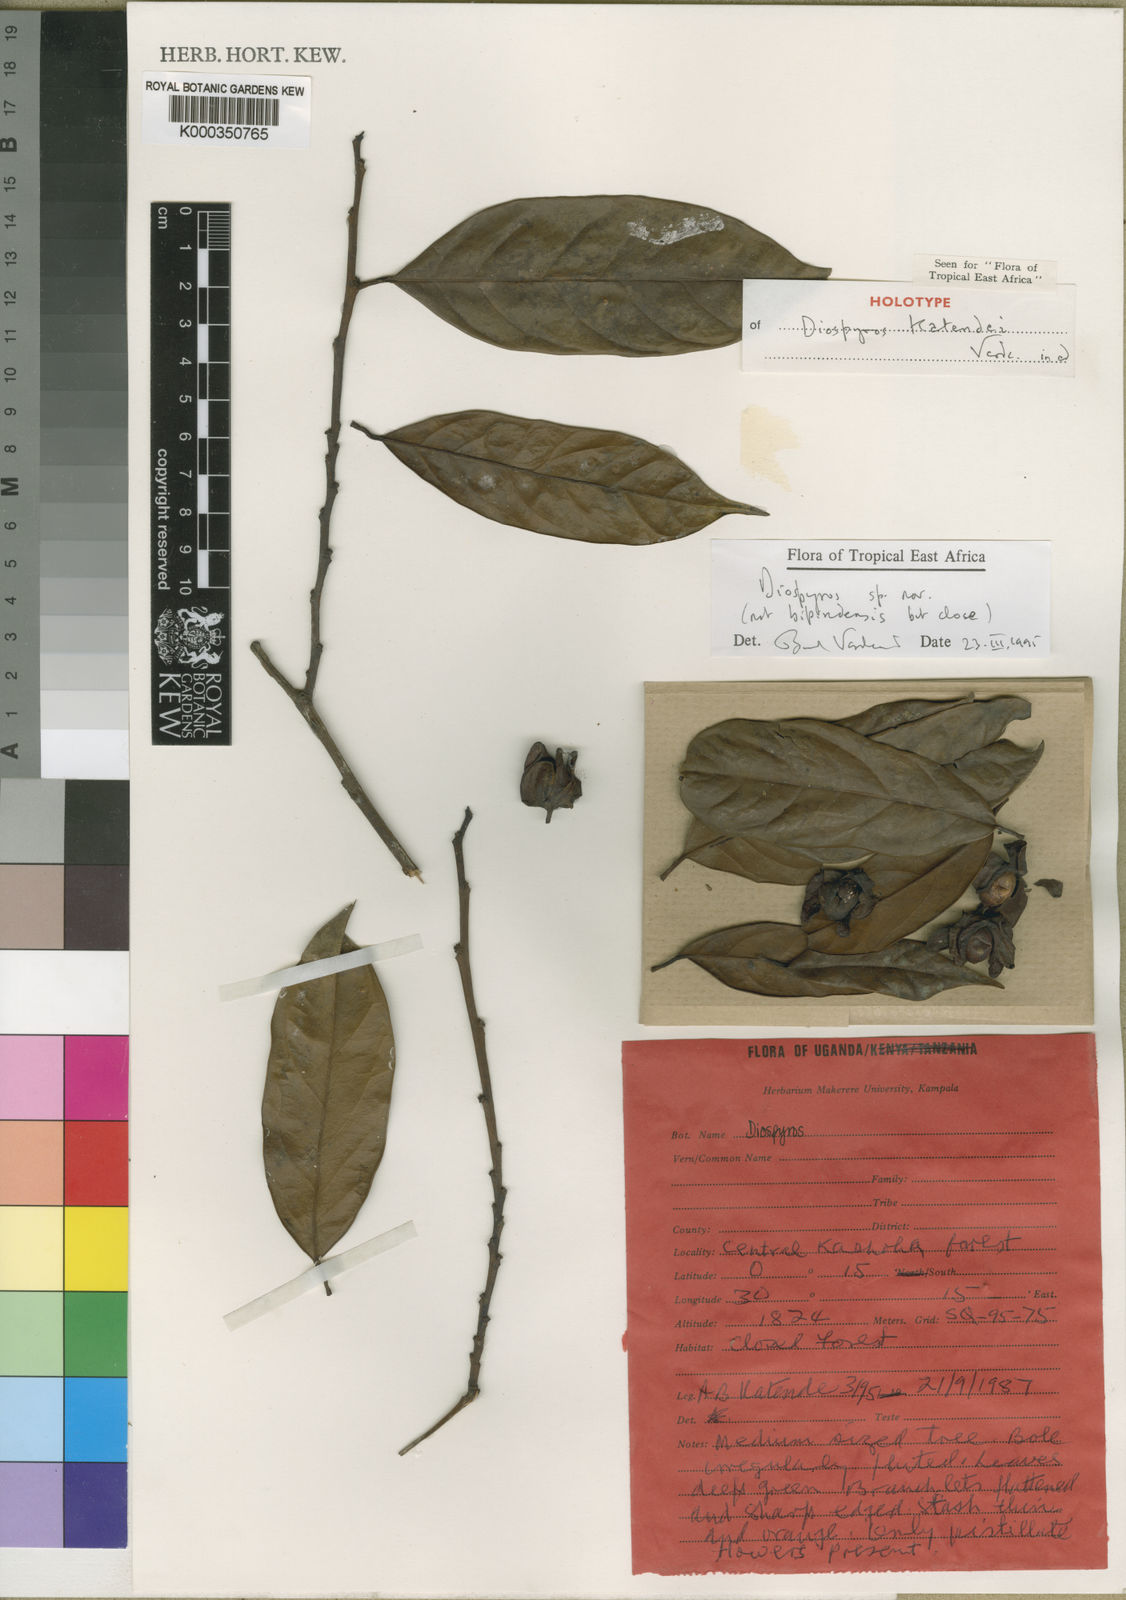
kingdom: Plantae
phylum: Tracheophyta
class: Magnoliopsida
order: Ericales
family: Ebenaceae
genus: Diospyros
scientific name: Diospyros katendei
